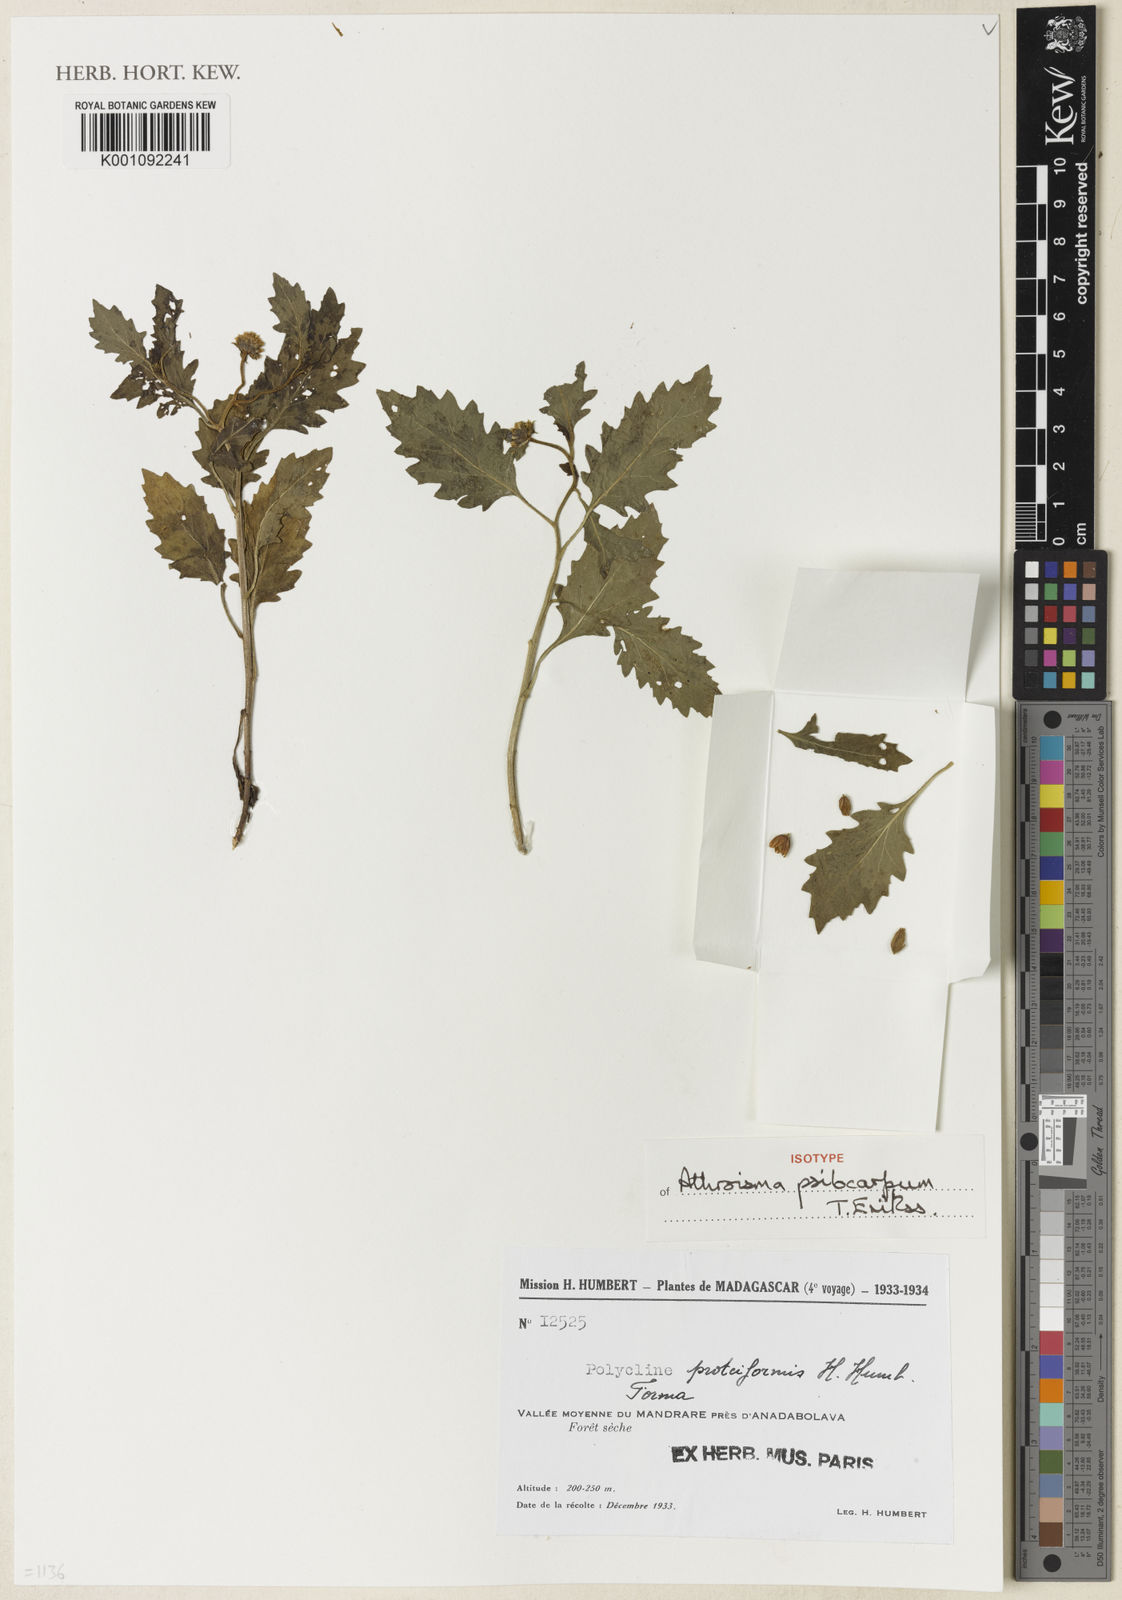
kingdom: Plantae
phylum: Tracheophyta
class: Magnoliopsida
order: Asterales
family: Asteraceae
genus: Athroisma
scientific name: Athroisma psilocarpum
